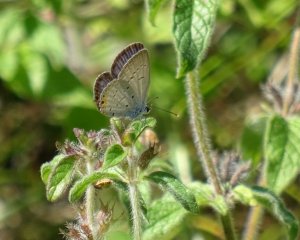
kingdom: Animalia
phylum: Arthropoda
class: Insecta
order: Lepidoptera
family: Lycaenidae
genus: Elkalyce
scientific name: Elkalyce comyntas
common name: Eastern Tailed-Blue
